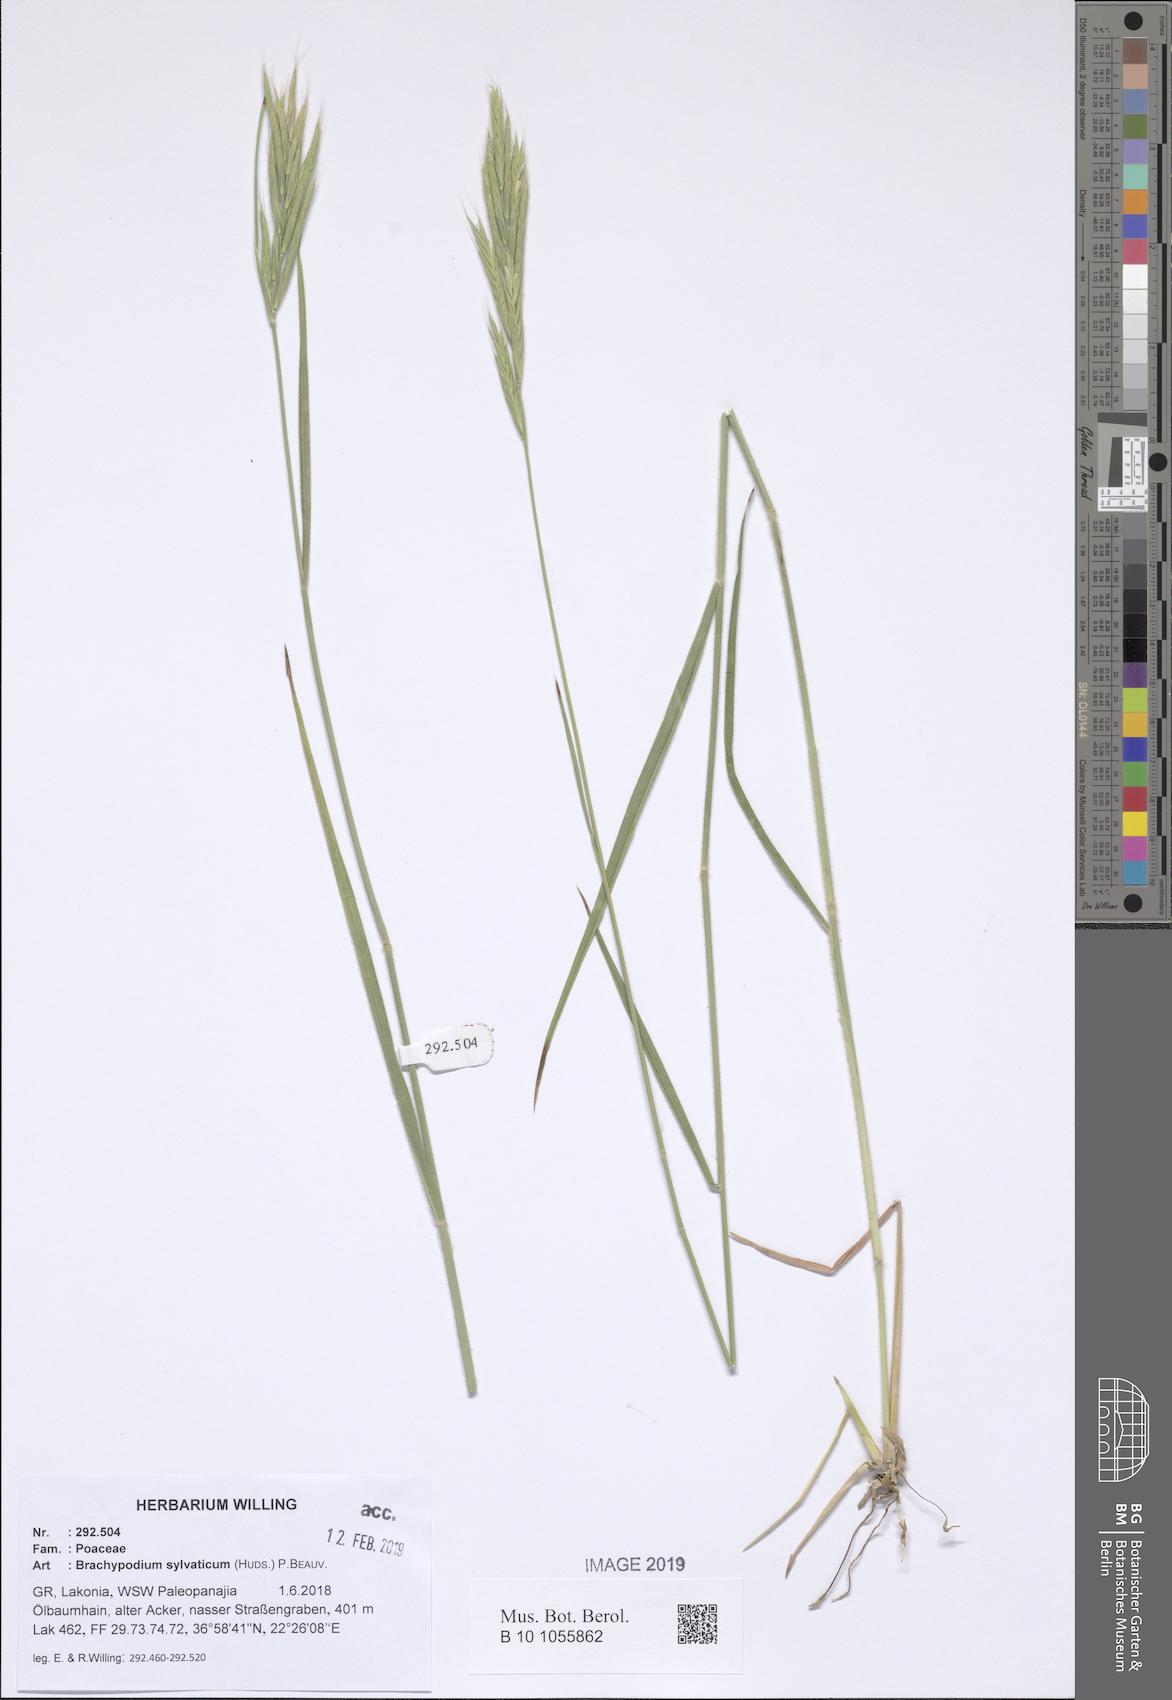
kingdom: Plantae
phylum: Tracheophyta
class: Liliopsida
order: Poales
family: Poaceae
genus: Brachypodium
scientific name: Brachypodium sylvaticum
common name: False-brome
